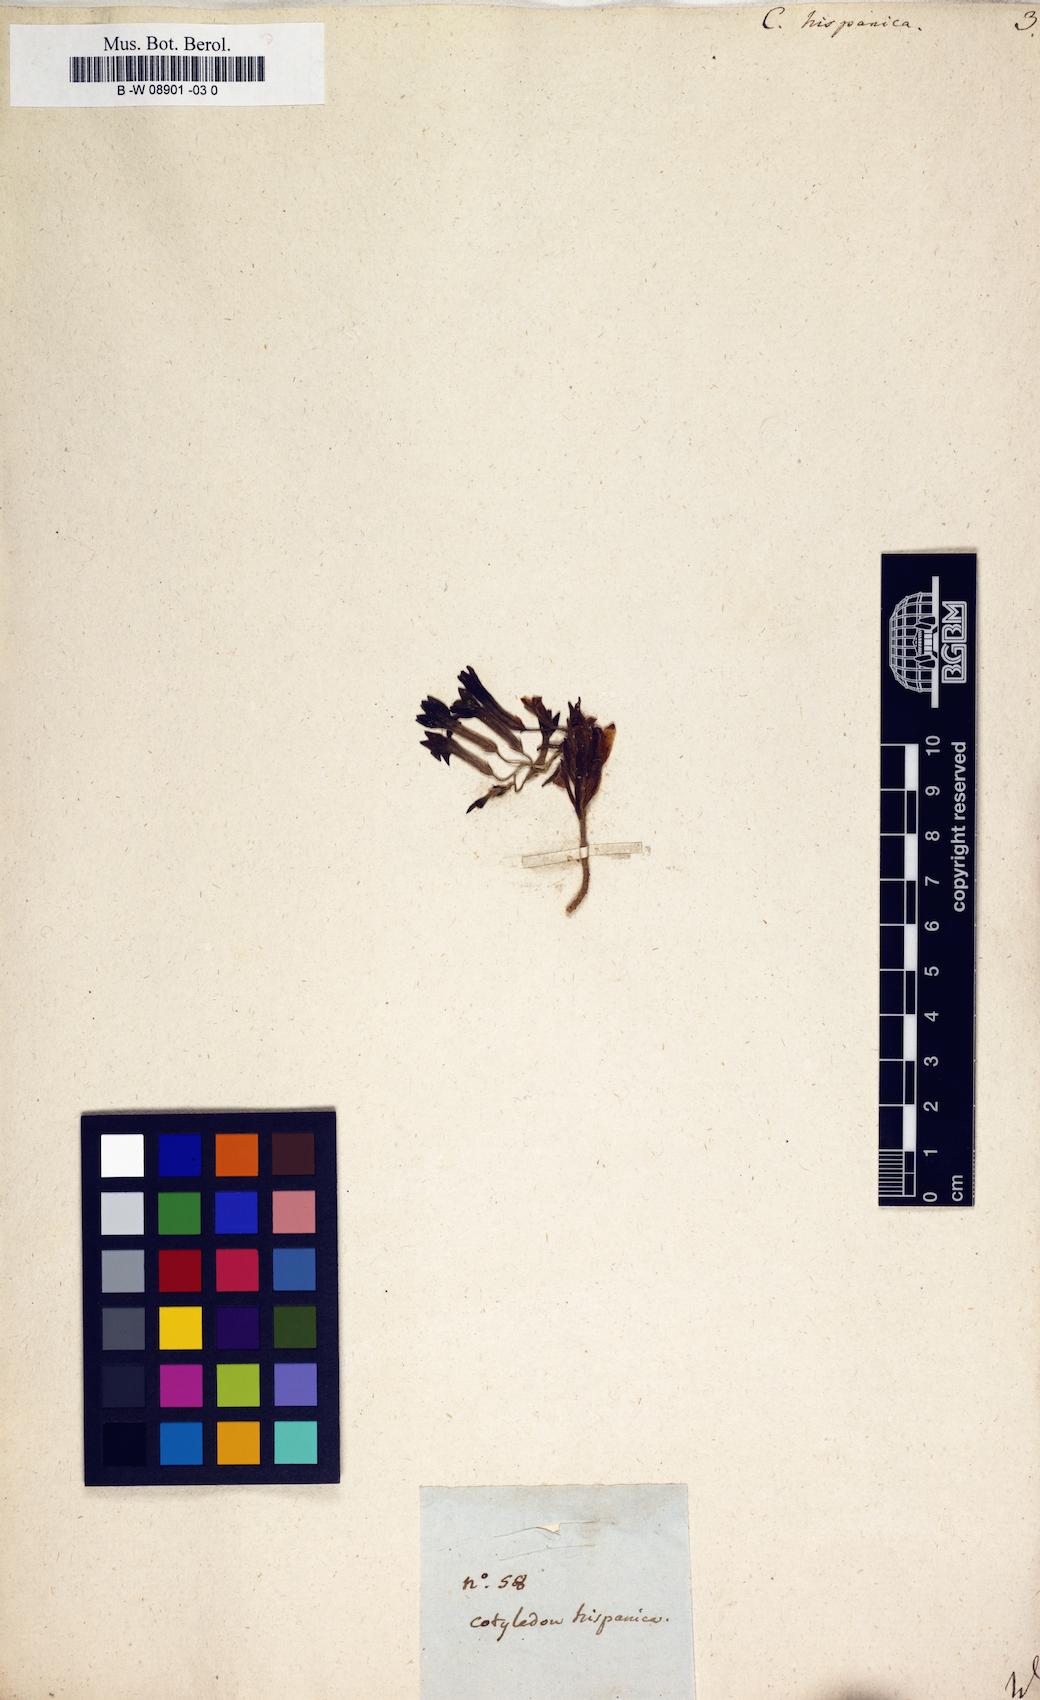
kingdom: Plantae
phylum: Tracheophyta
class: Magnoliopsida
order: Saxifragales
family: Crassulaceae
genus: Pistorinia
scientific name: Pistorinia
